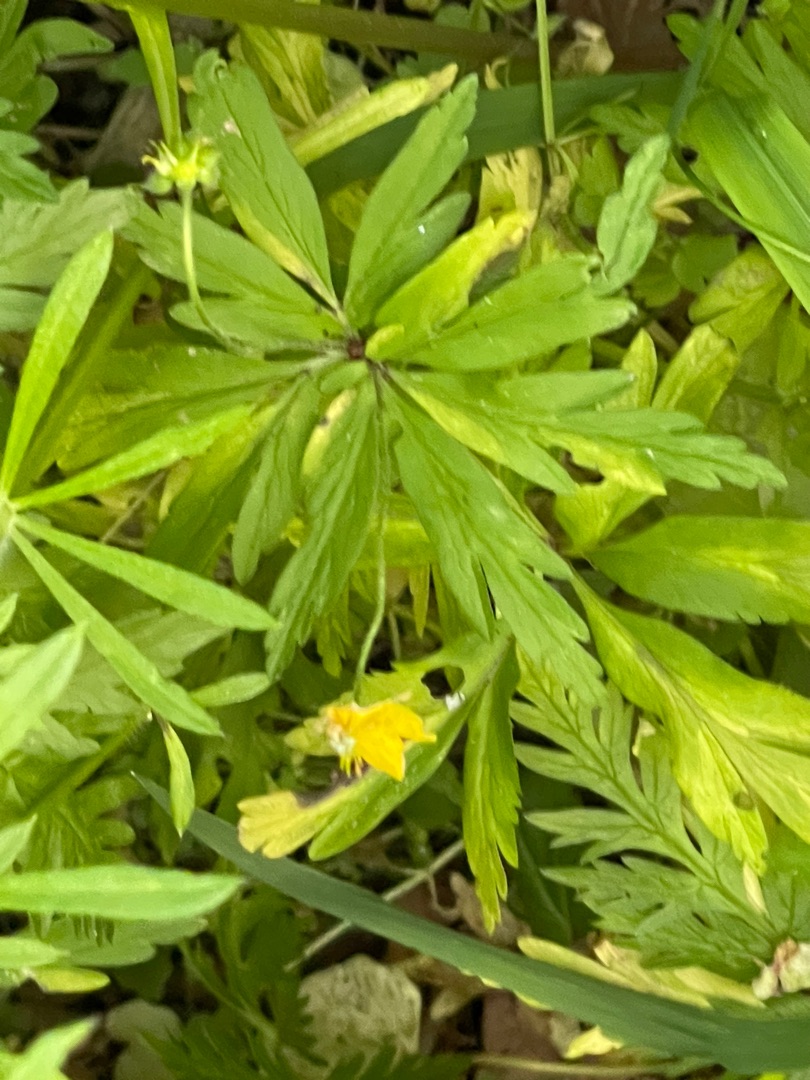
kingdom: Plantae
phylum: Tracheophyta
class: Magnoliopsida
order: Ranunculales
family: Ranunculaceae
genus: Anemone
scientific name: Anemone ranunculoides
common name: Gul anemone
